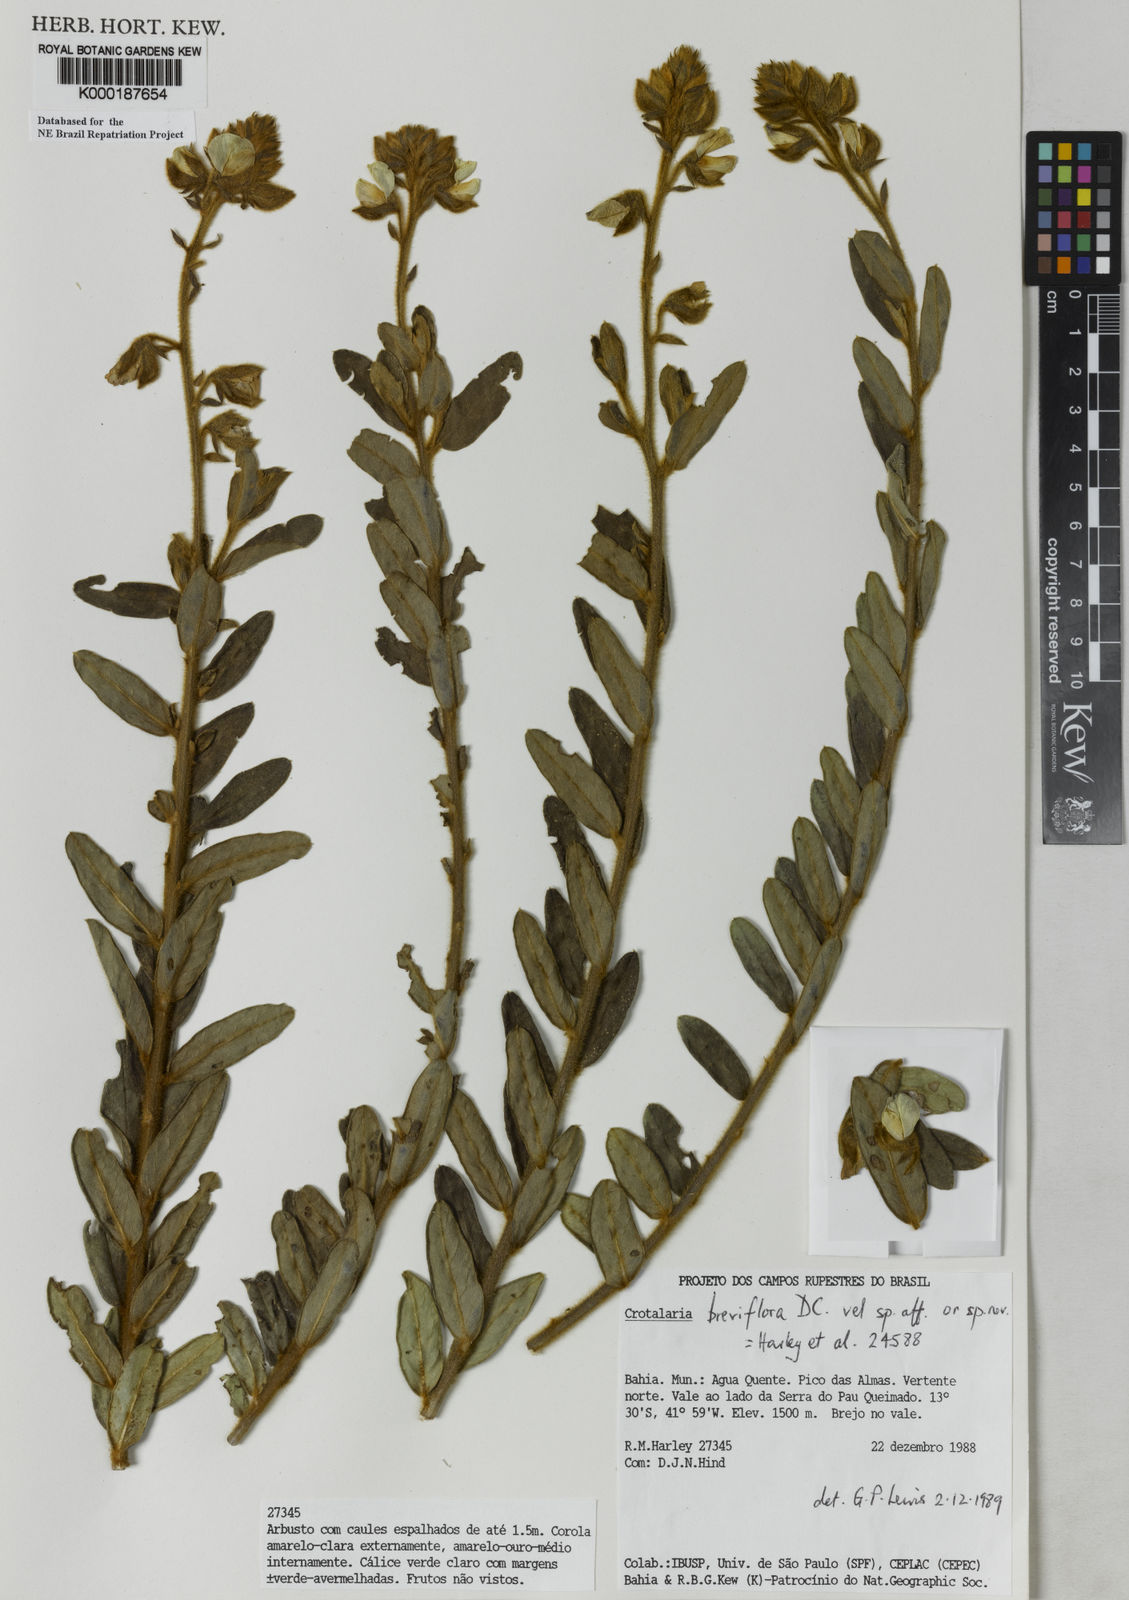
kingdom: Plantae
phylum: Tracheophyta
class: Magnoliopsida
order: Fabales
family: Fabaceae
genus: Crotalaria
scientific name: Crotalaria martiana
